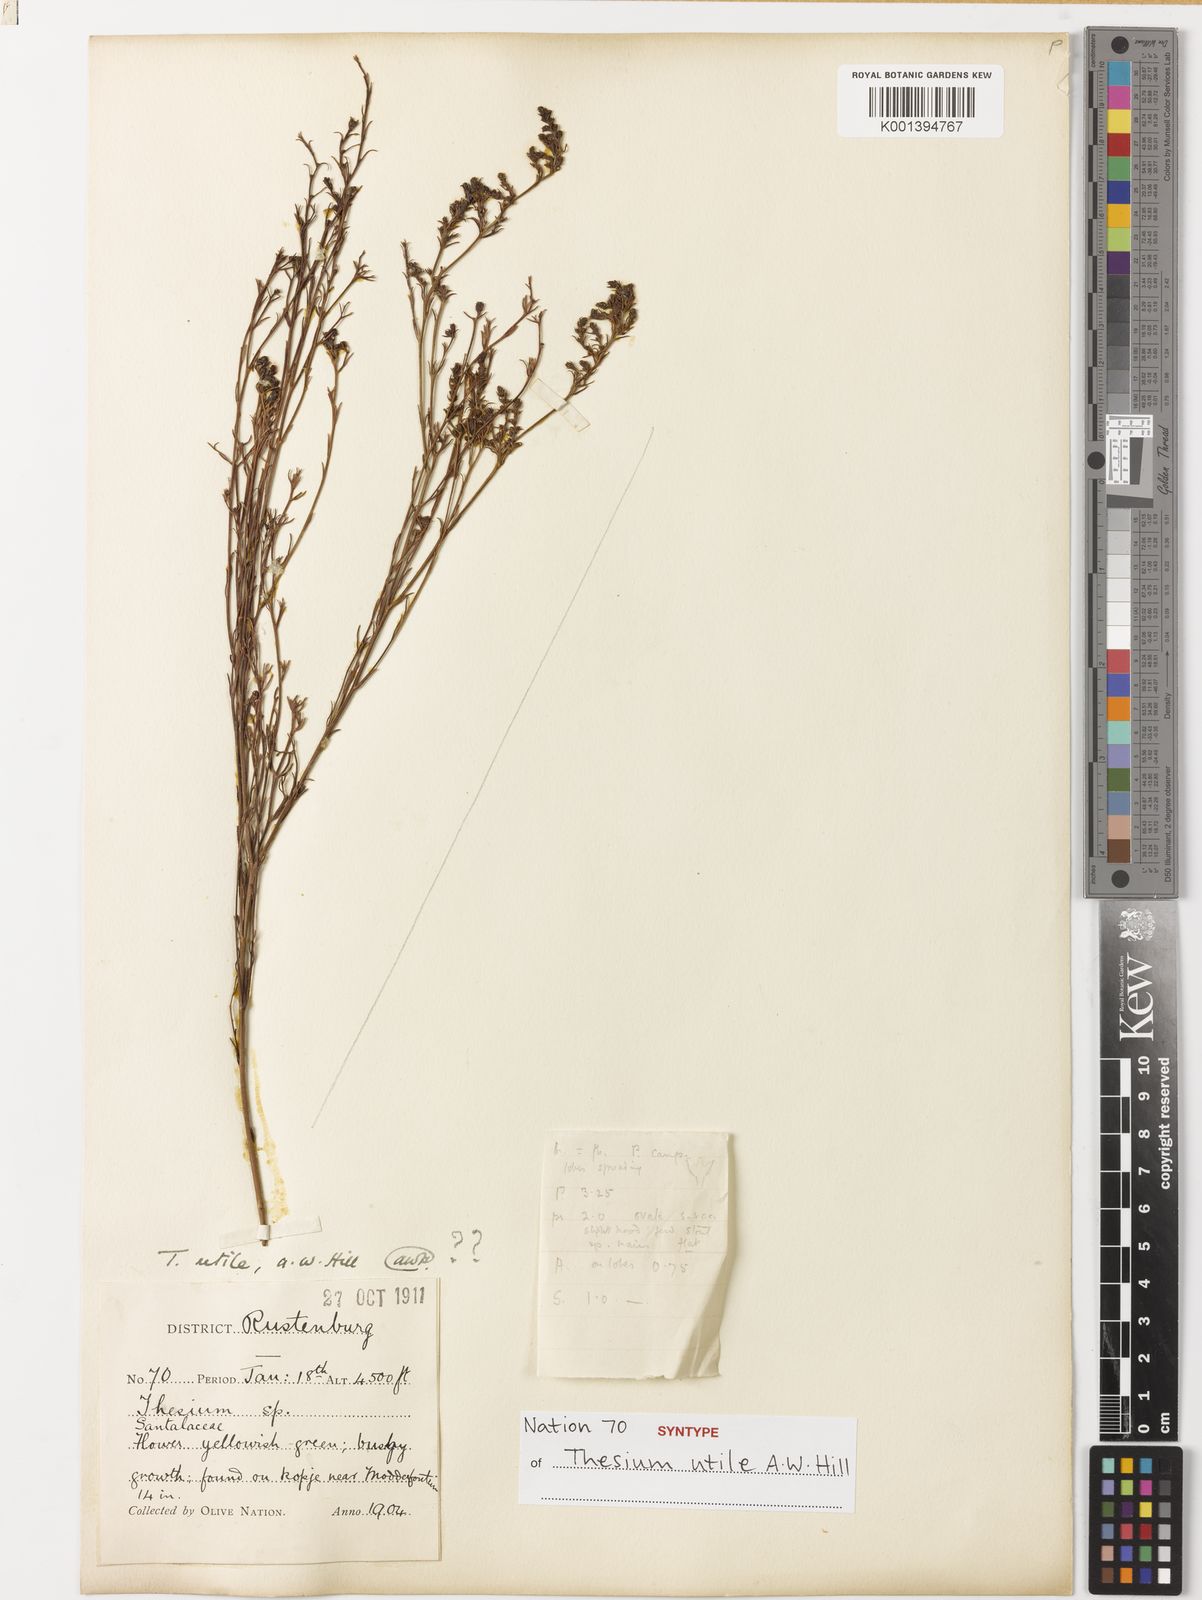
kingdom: Plantae
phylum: Tracheophyta
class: Magnoliopsida
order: Santalales
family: Thesiaceae
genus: Thesium
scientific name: Thesium utile
